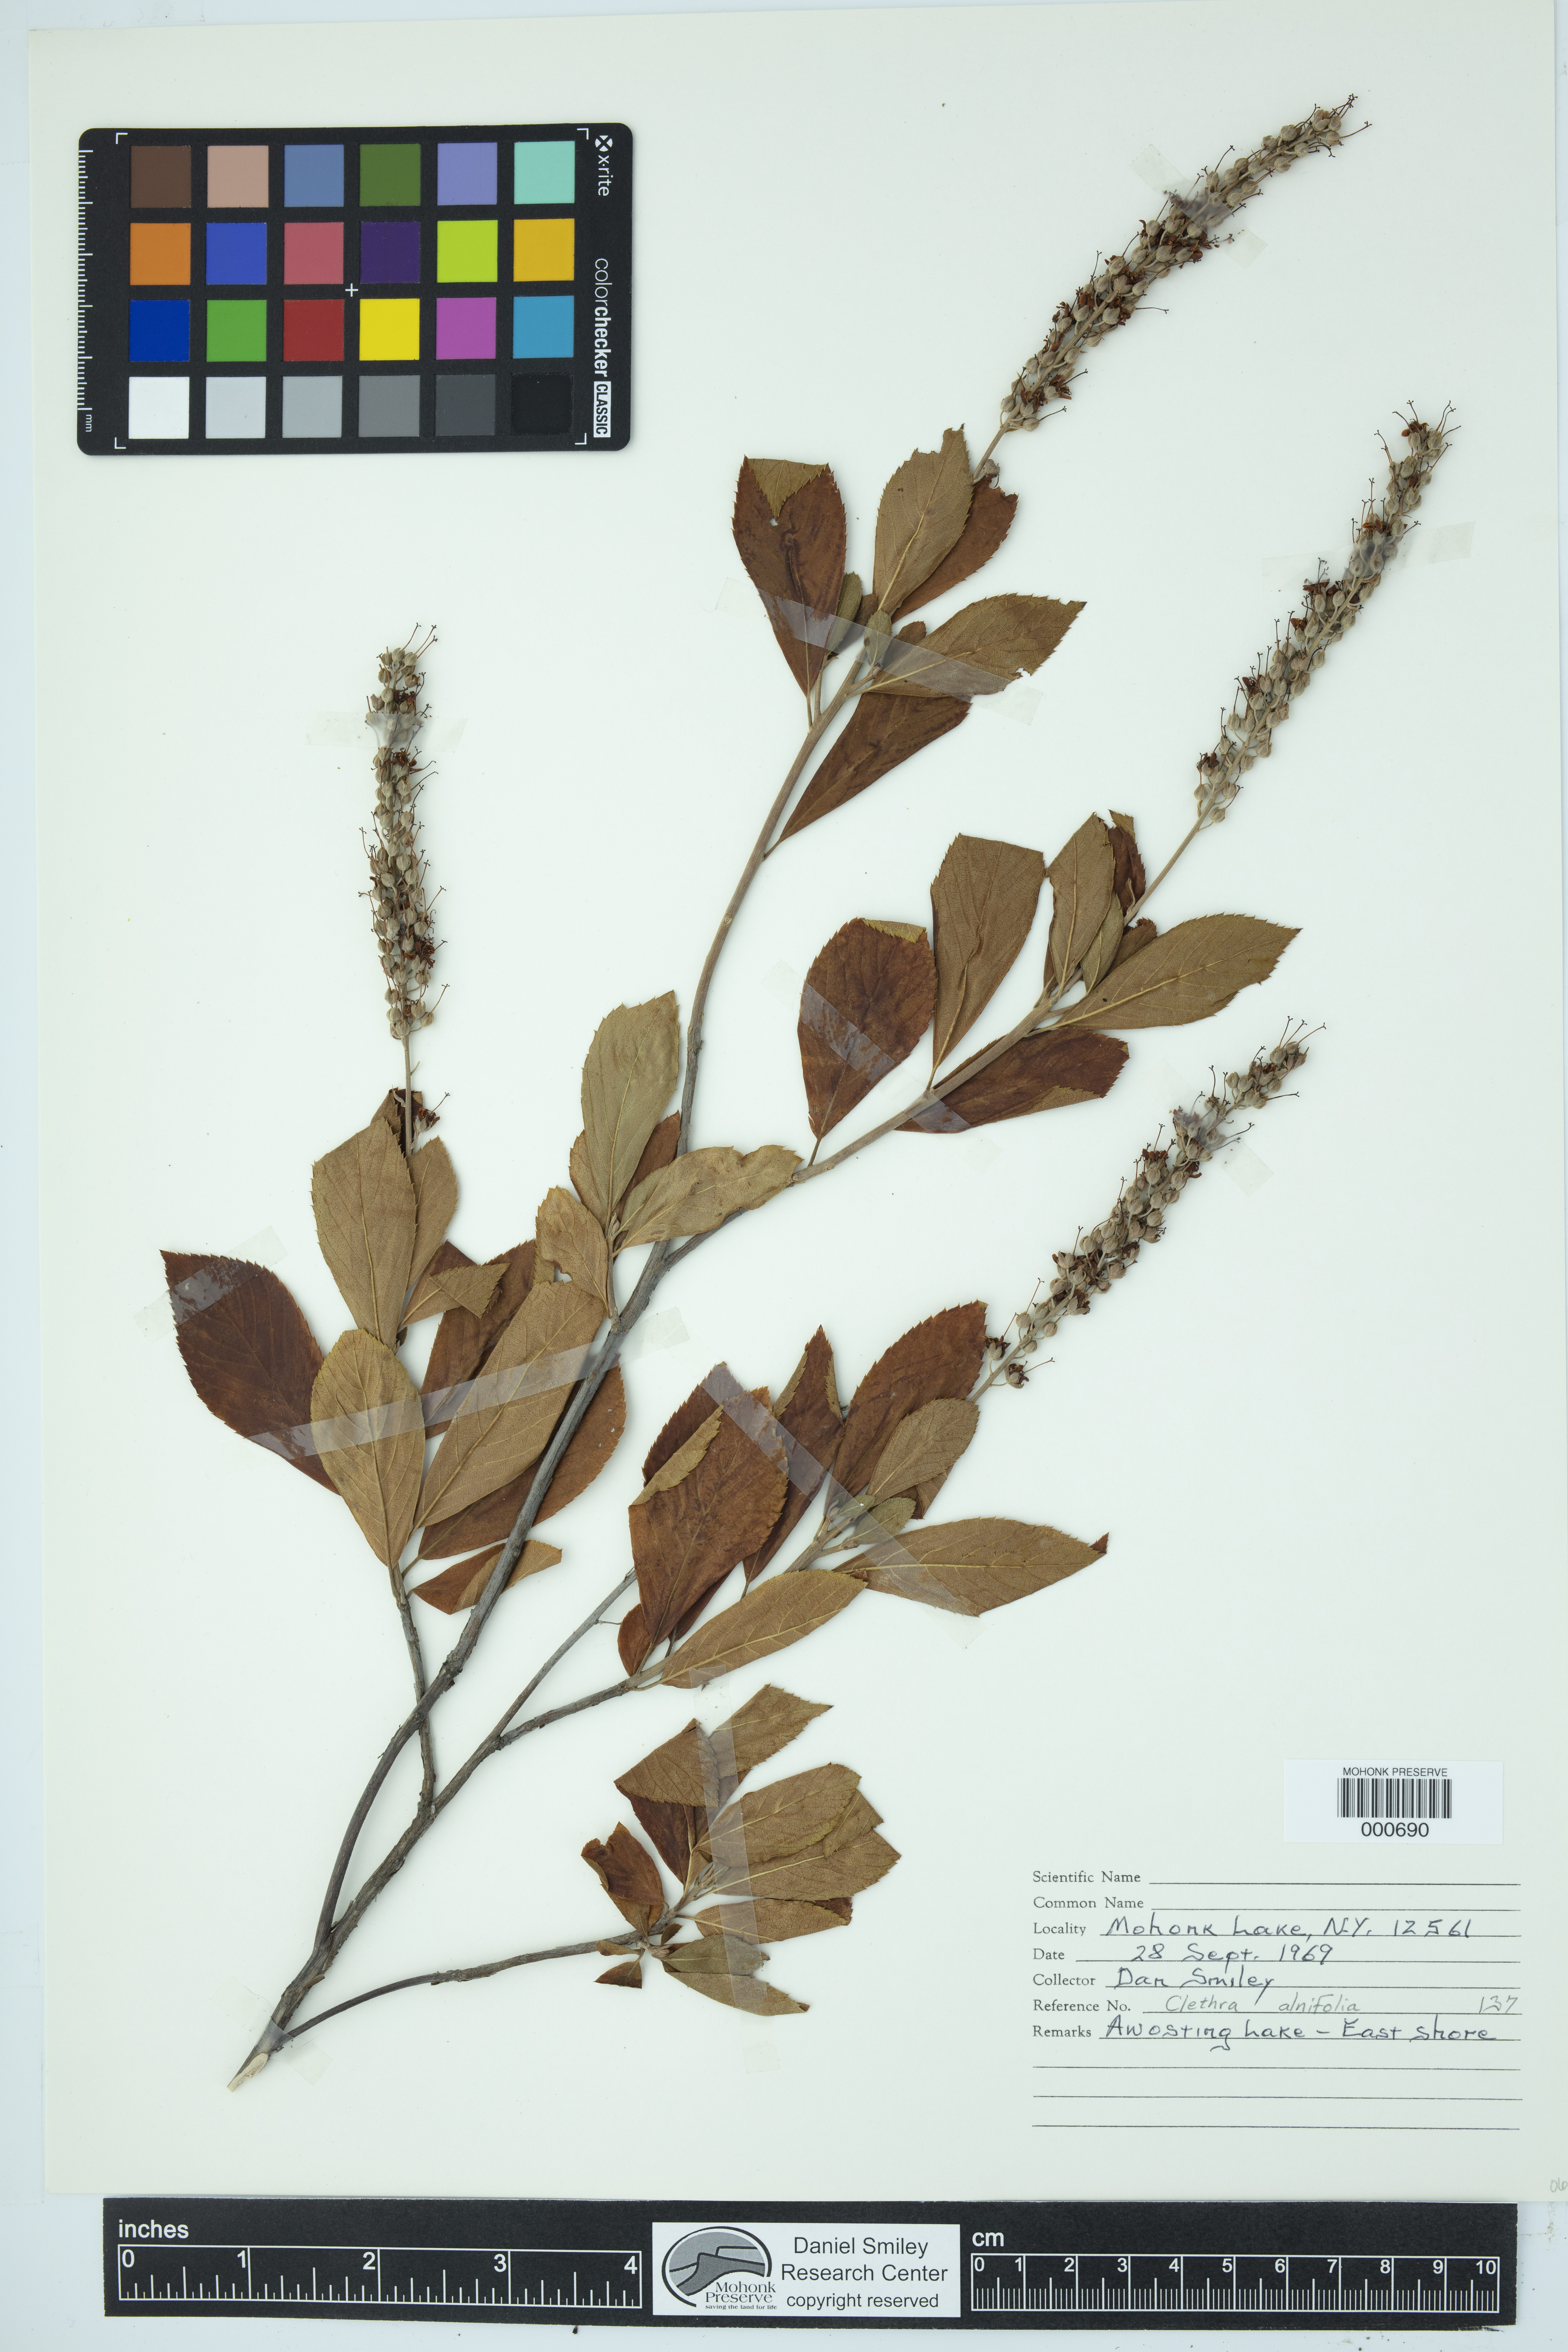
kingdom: Plantae
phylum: Tracheophyta
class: Magnoliopsida
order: Ericales
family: Clethraceae
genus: Clethra
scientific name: Clethra alnifolia
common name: Sweet pepperbush
